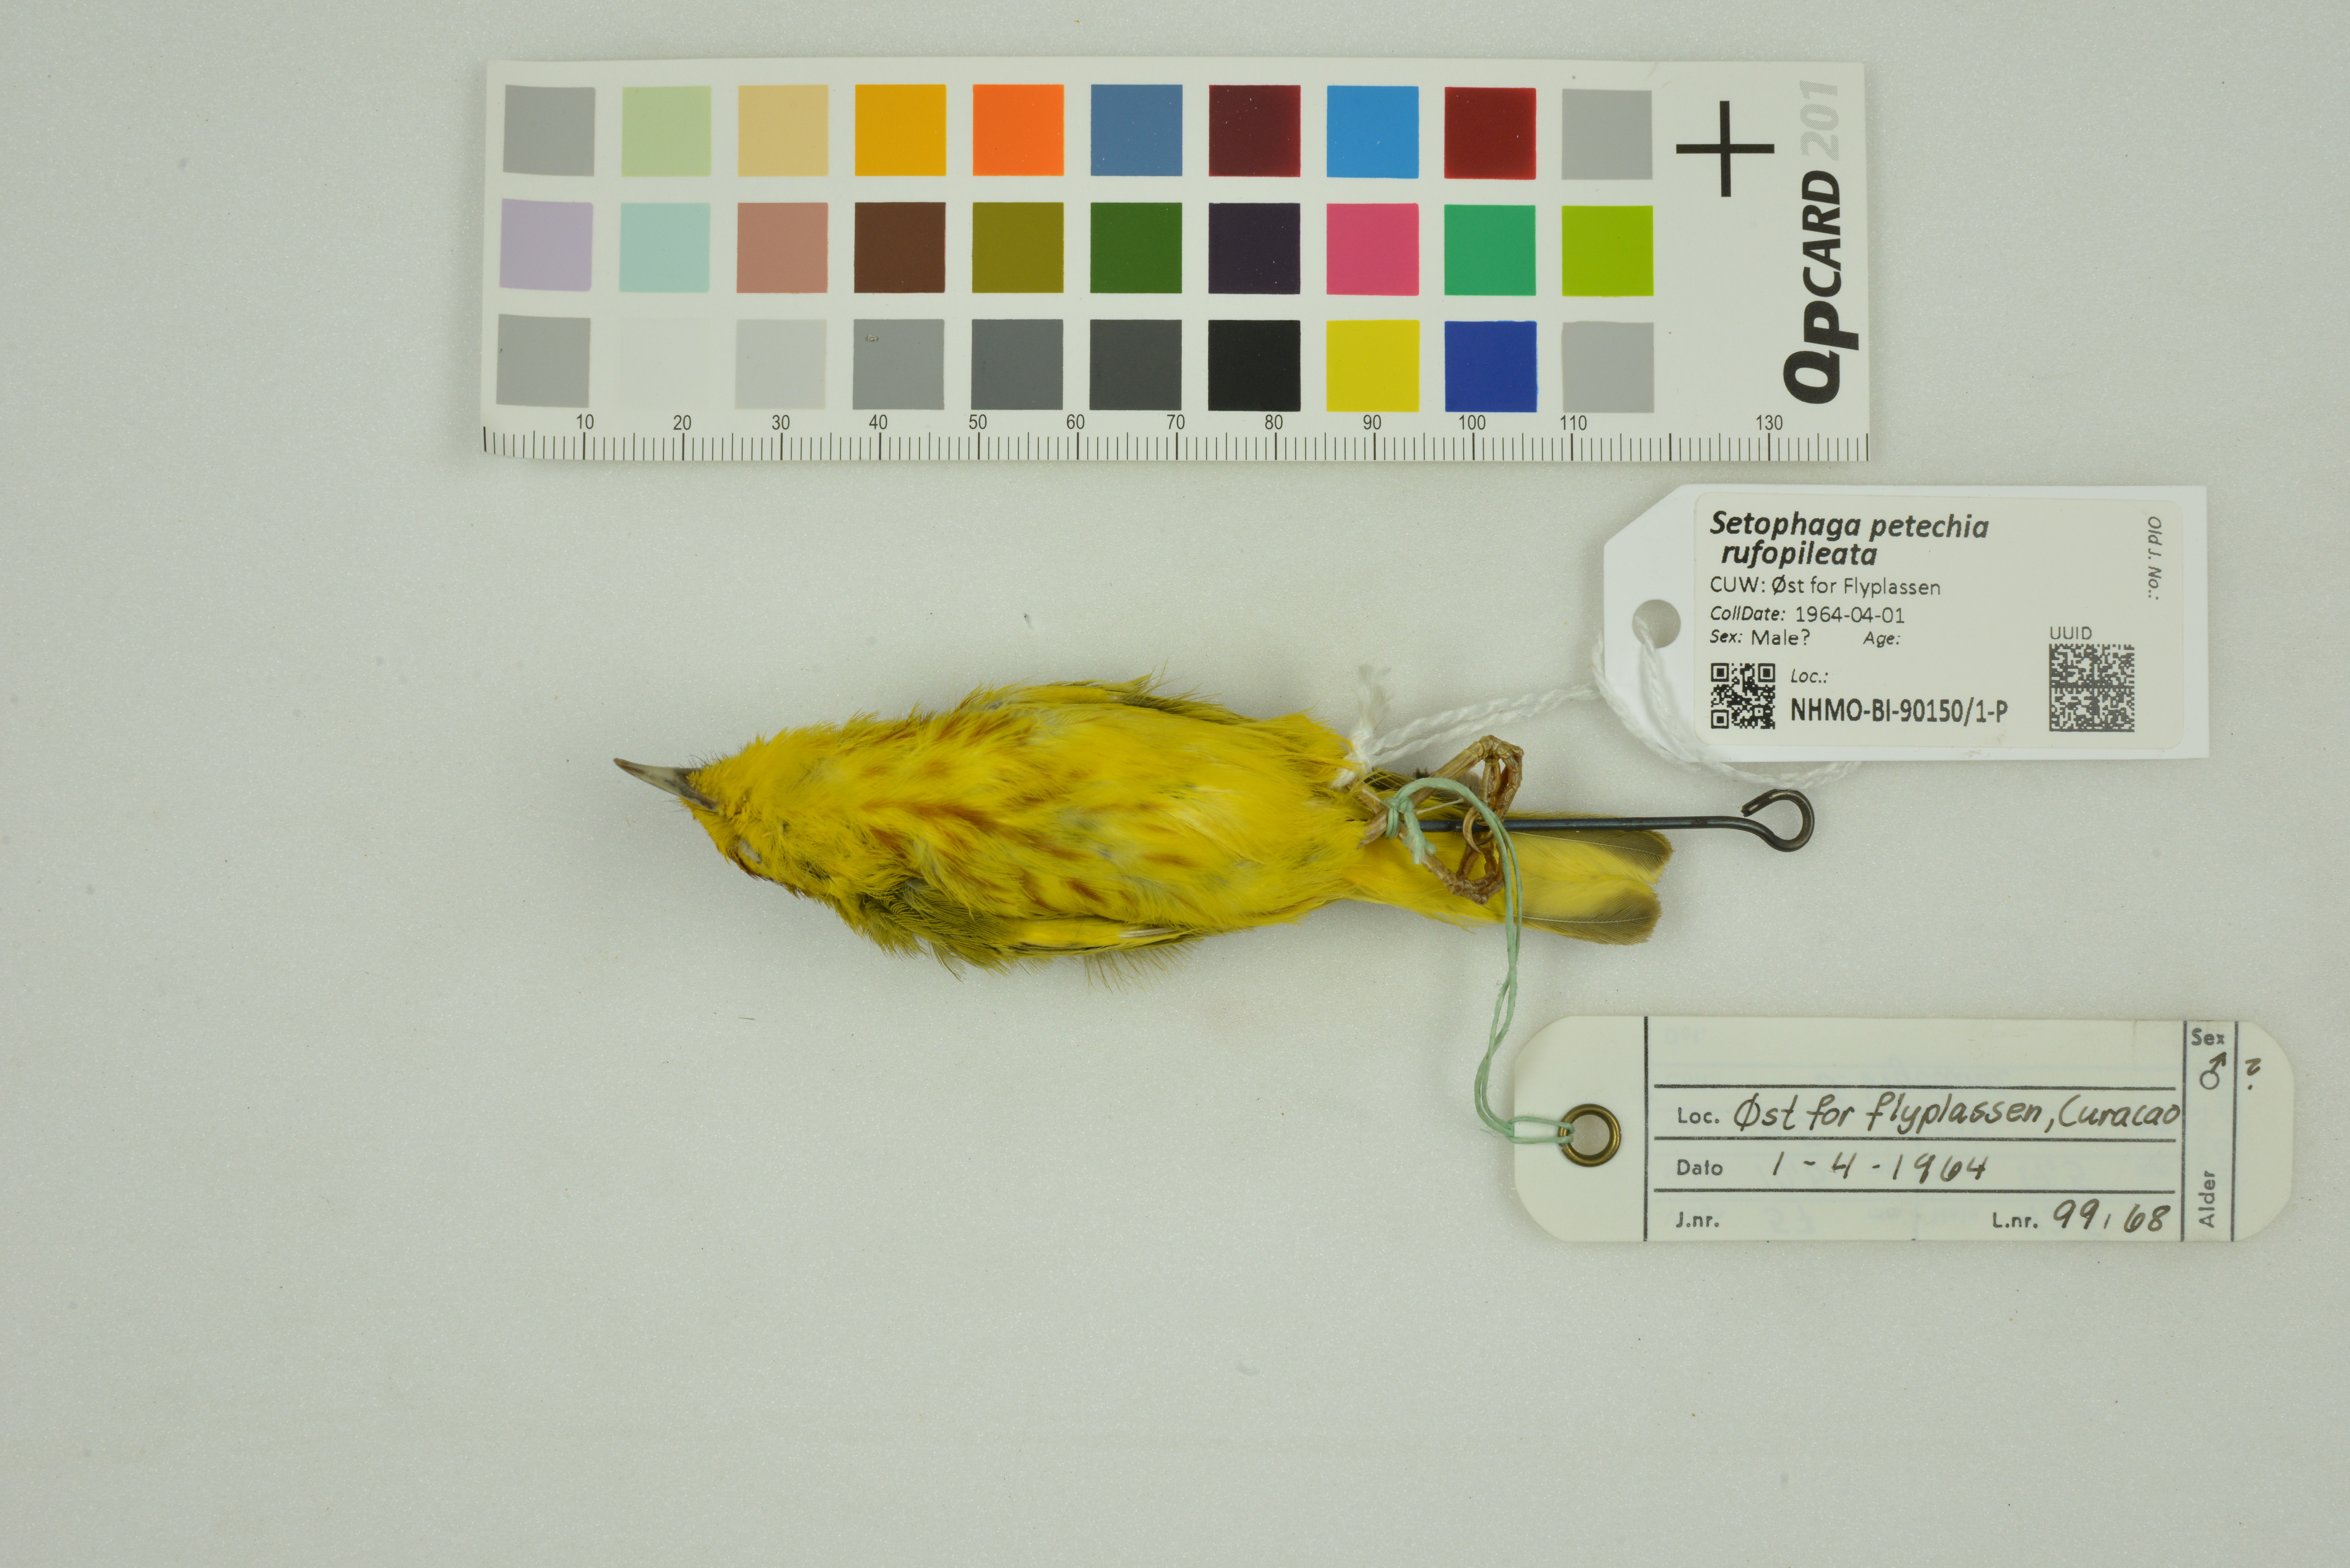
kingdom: Animalia
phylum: Chordata
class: Aves
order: Passeriformes
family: Parulidae
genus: Setophaga
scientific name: Setophaga petechia
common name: Yellow warbler
